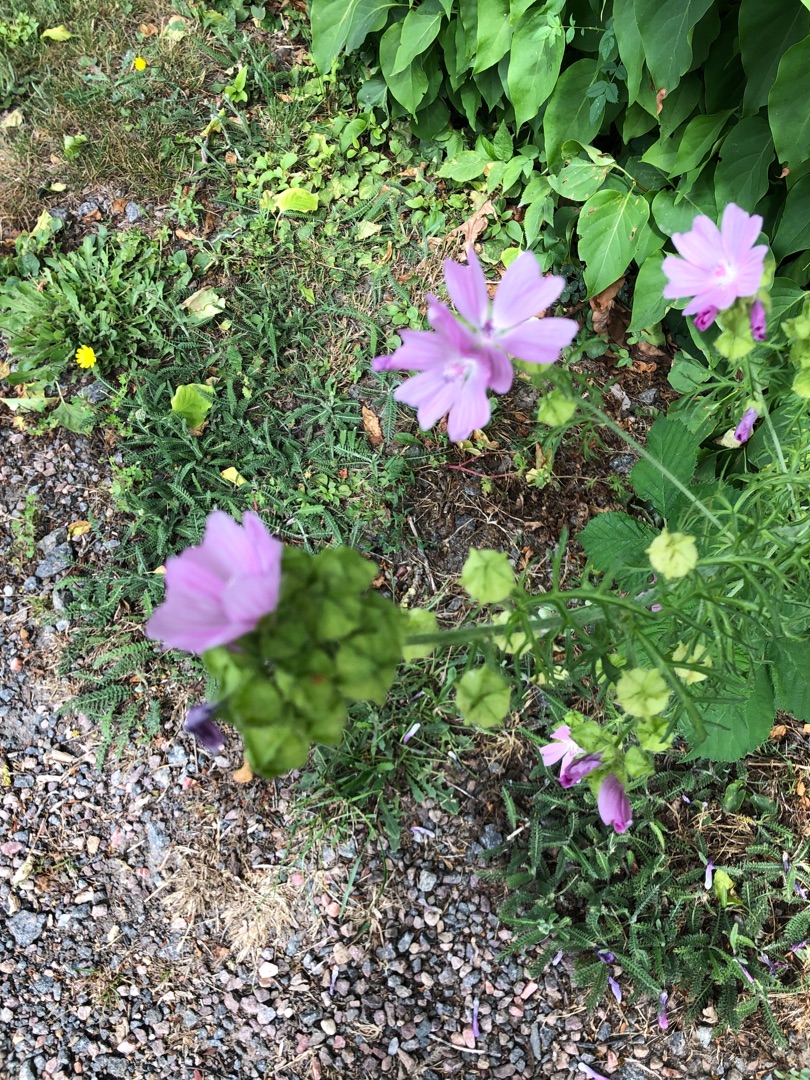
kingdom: Plantae
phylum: Tracheophyta
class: Magnoliopsida
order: Malvales
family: Malvaceae
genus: Malva
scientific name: Malva moschata
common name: Moskus-katost
